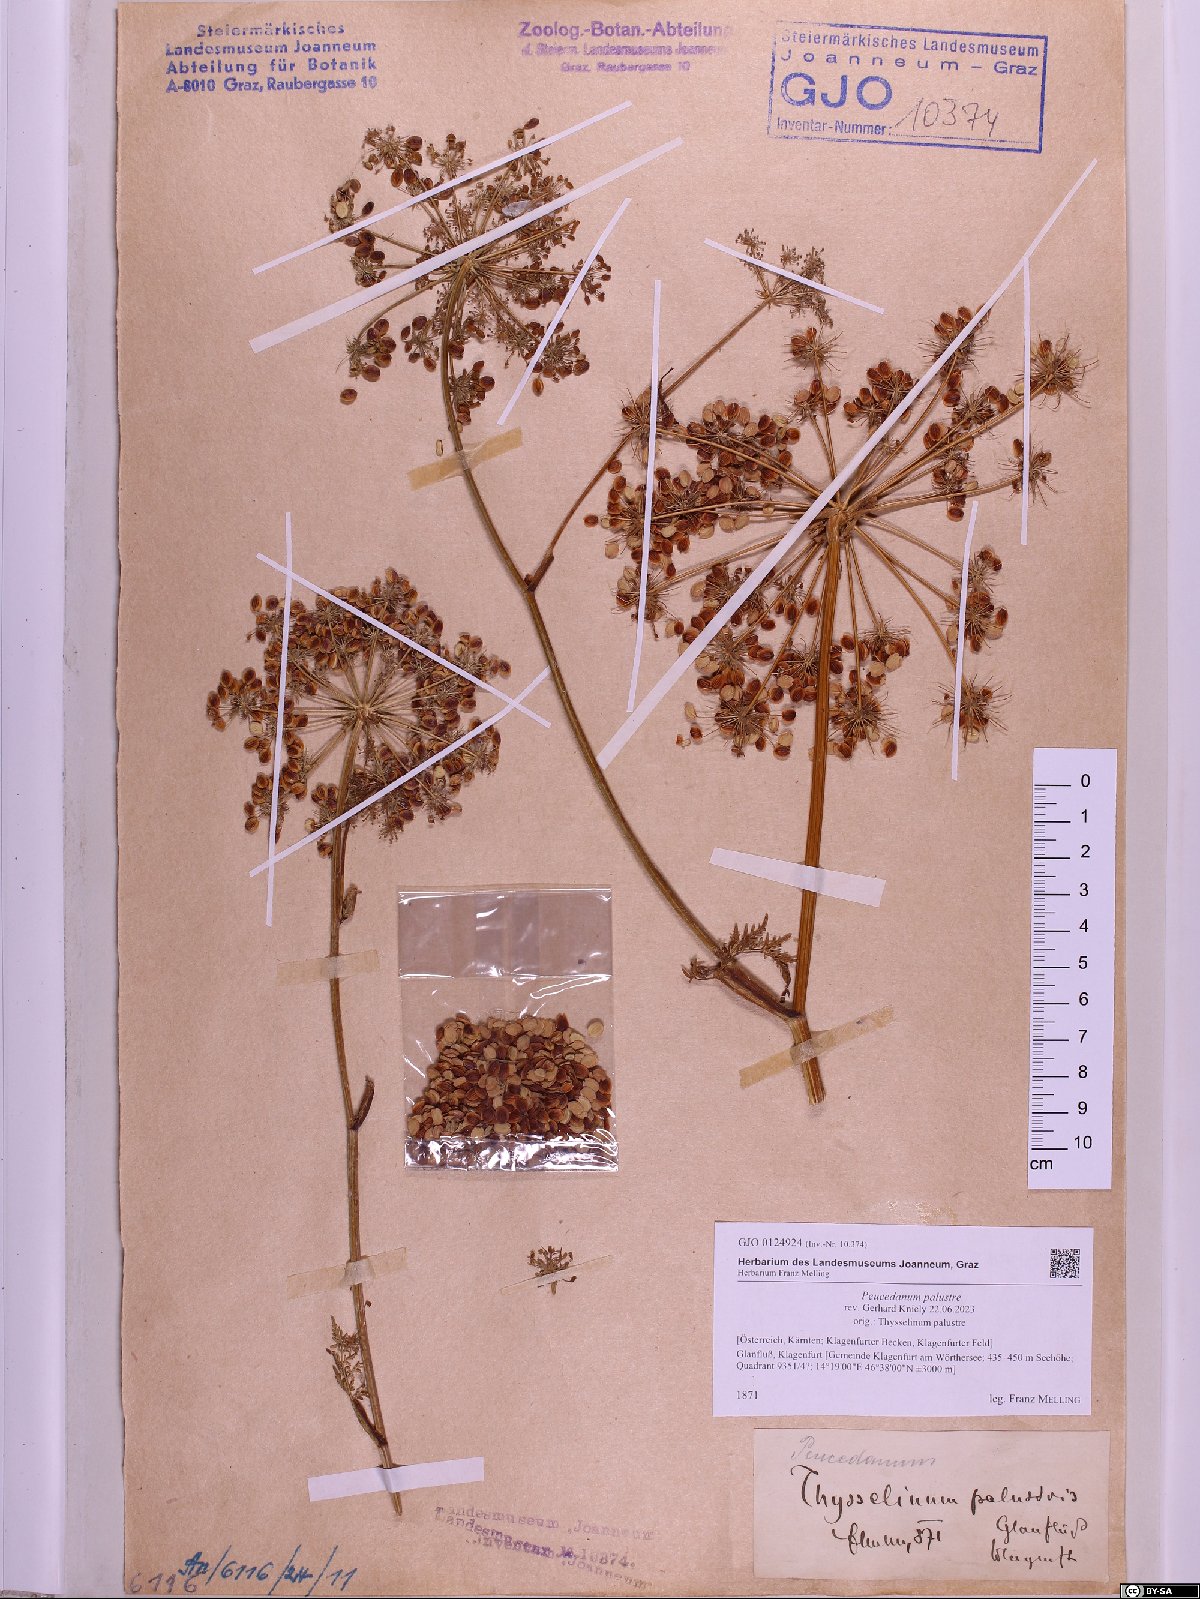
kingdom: Plantae
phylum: Tracheophyta
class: Magnoliopsida
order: Apiales
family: Apiaceae
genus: Thysselinum
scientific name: Thysselinum palustre
